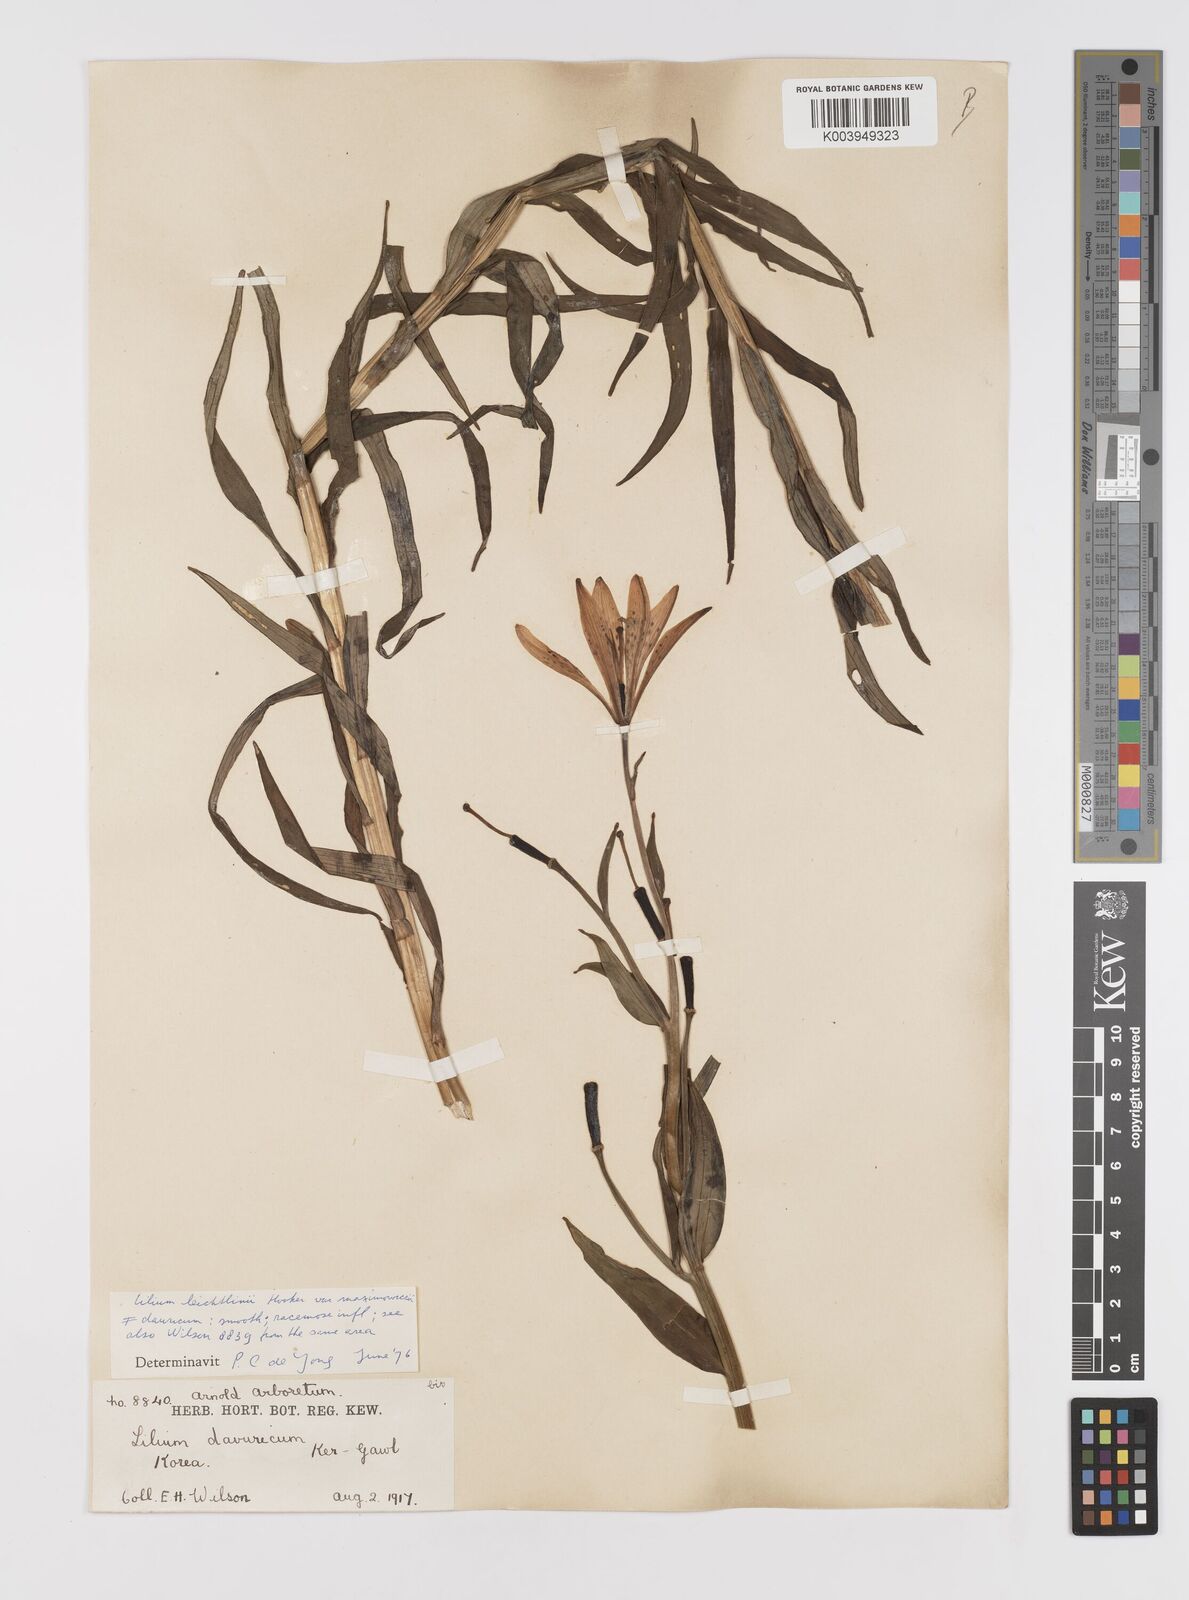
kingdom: Plantae
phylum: Tracheophyta
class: Liliopsida
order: Liliales
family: Liliaceae
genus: Lilium
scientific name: Lilium leichtlinii
